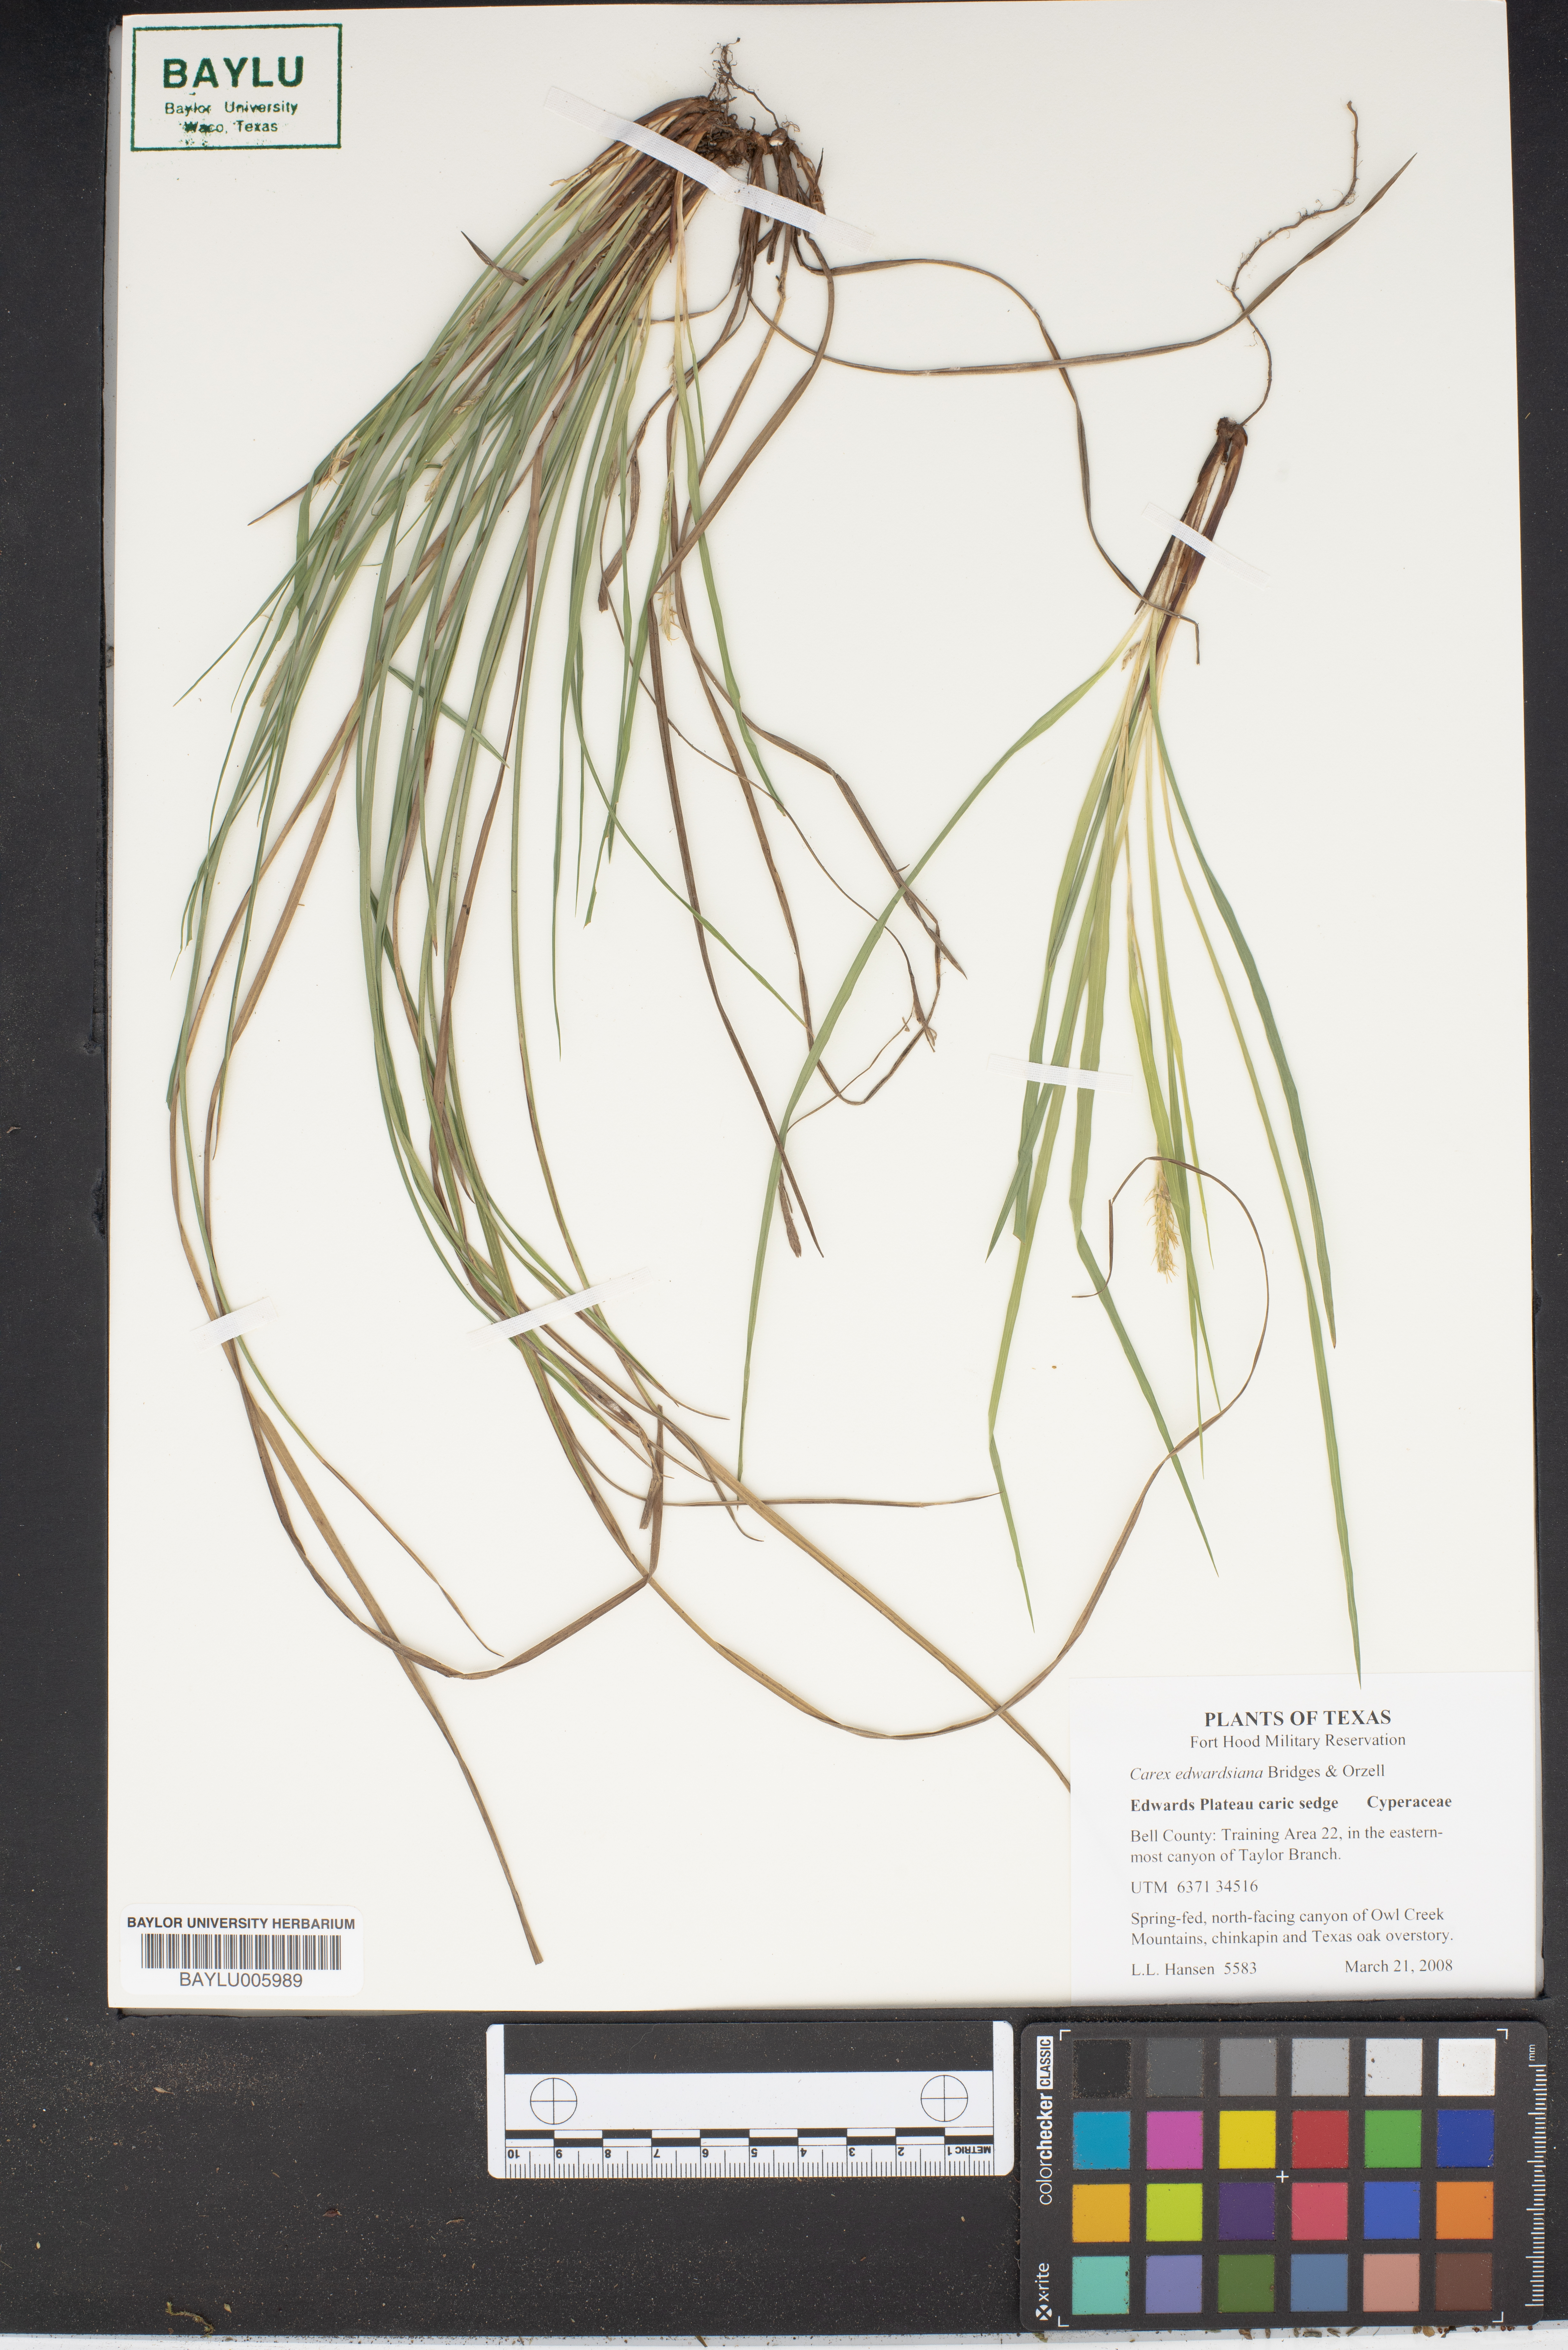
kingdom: Plantae
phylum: Tracheophyta
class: Liliopsida
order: Poales
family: Cyperaceae
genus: Carex
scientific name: Carex edwardsiana
